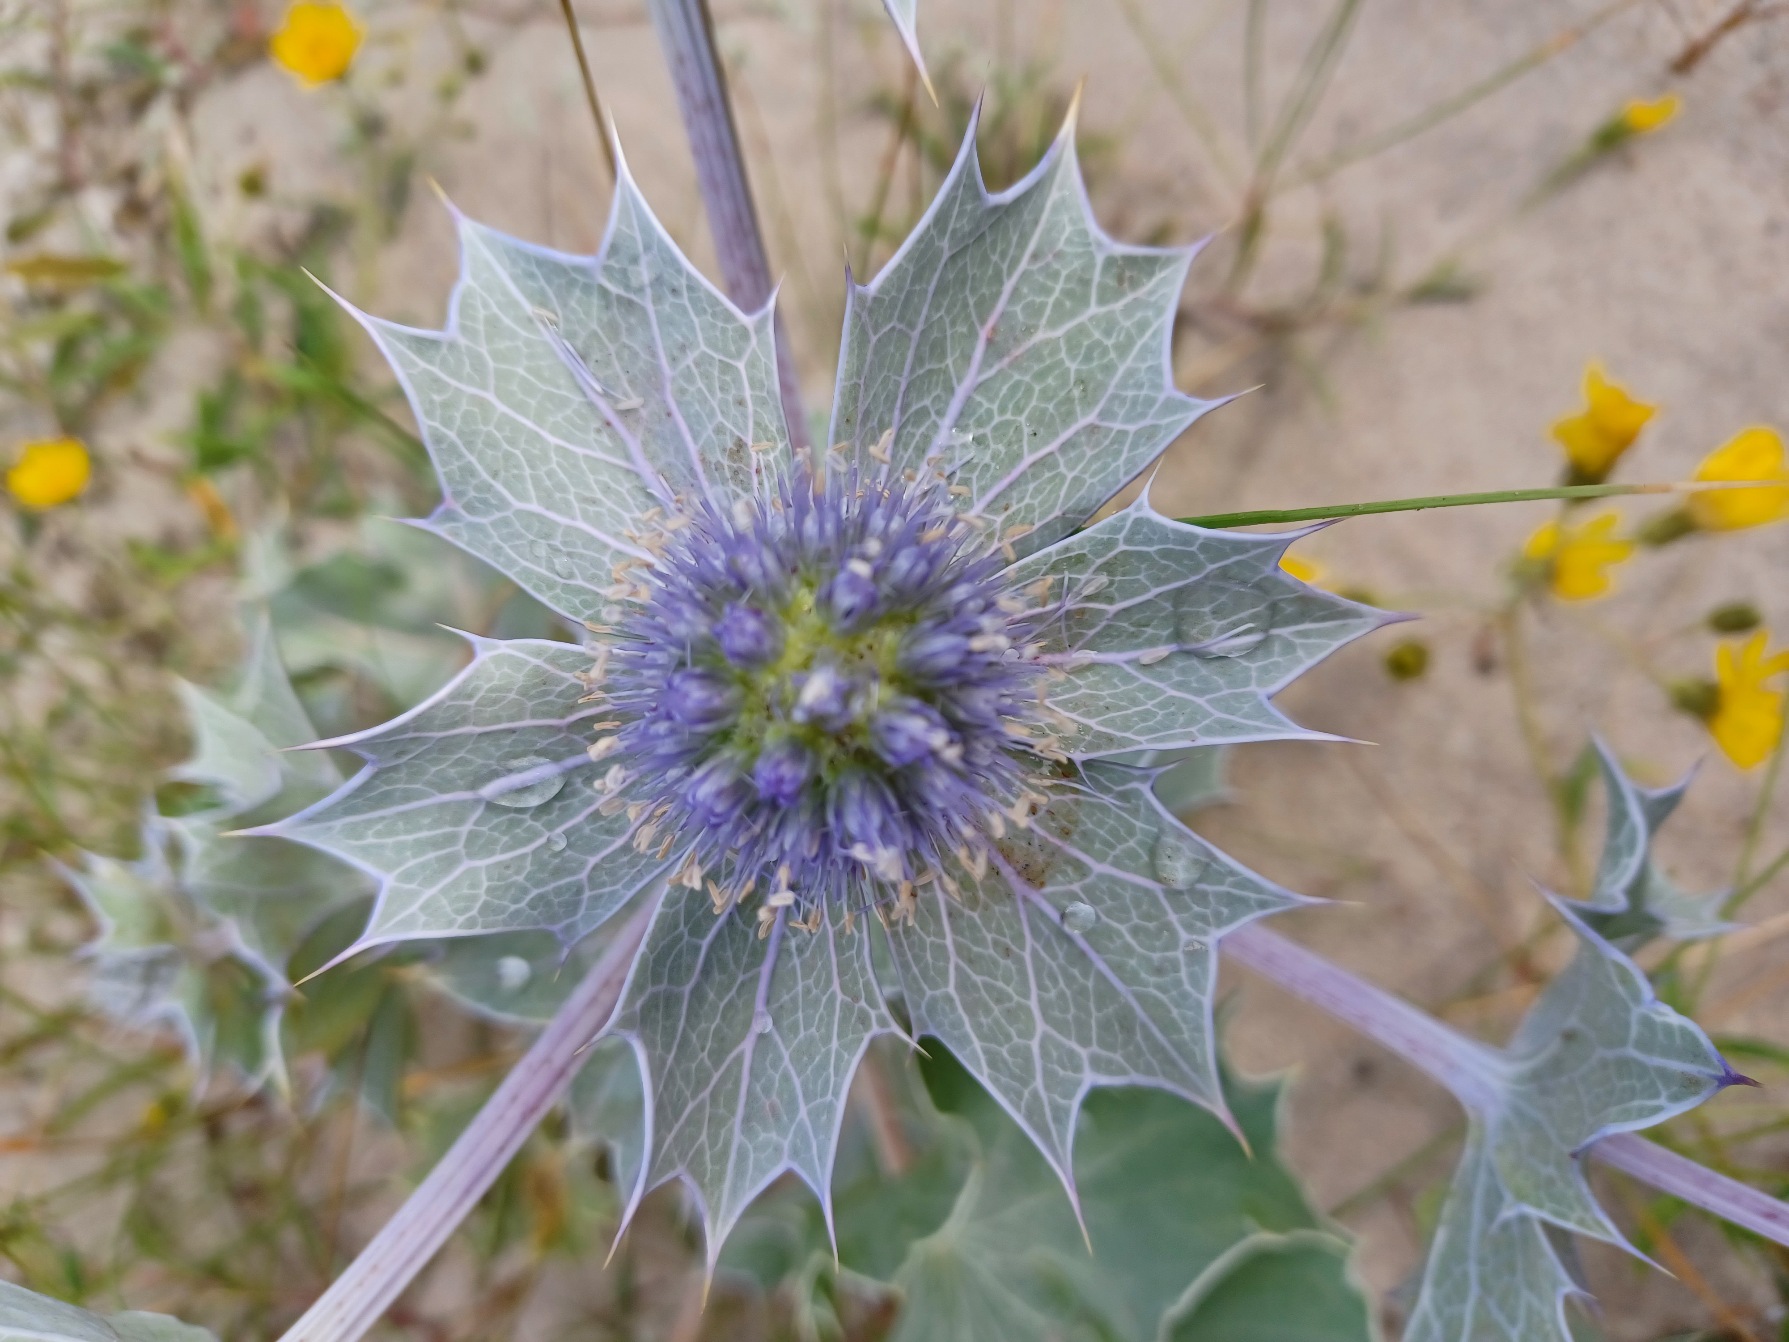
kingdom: Plantae
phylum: Tracheophyta
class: Magnoliopsida
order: Apiales
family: Apiaceae
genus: Eryngium
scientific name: Eryngium maritimum
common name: Strand-mandstro
